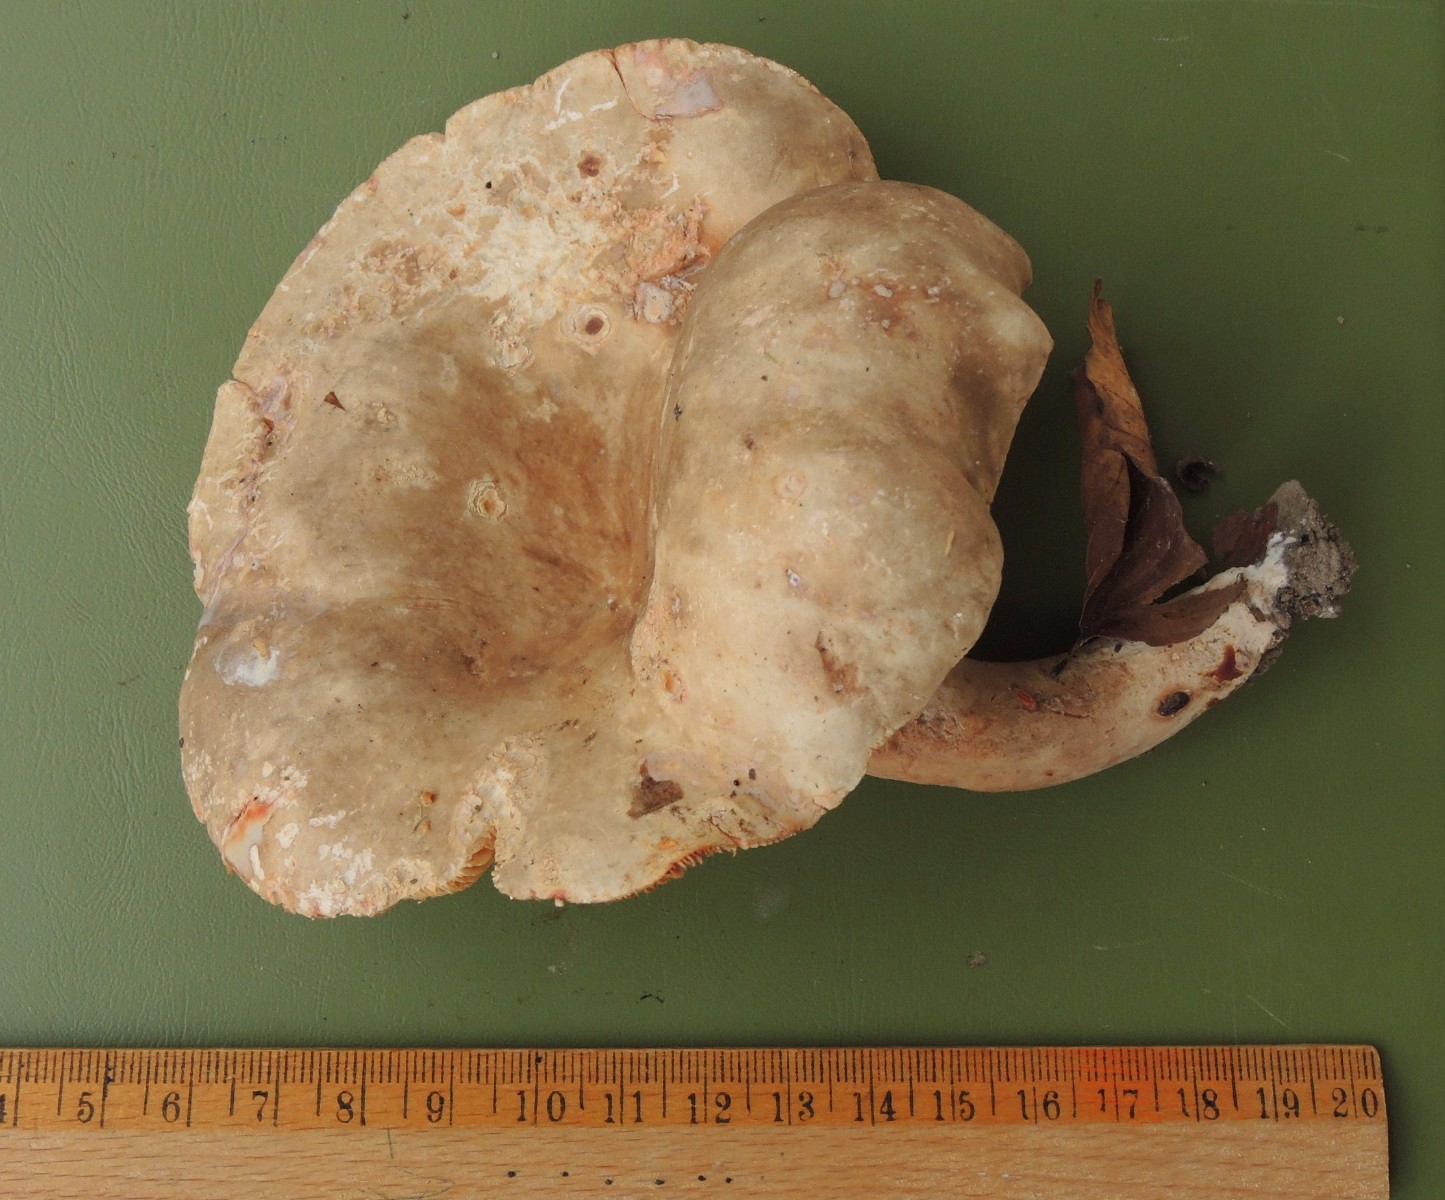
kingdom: Fungi
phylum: Basidiomycota
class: Agaricomycetes
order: Russulales
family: Russulaceae
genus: Lactarius
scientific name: Lactarius pterosporus
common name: vingesporet mælkehat
